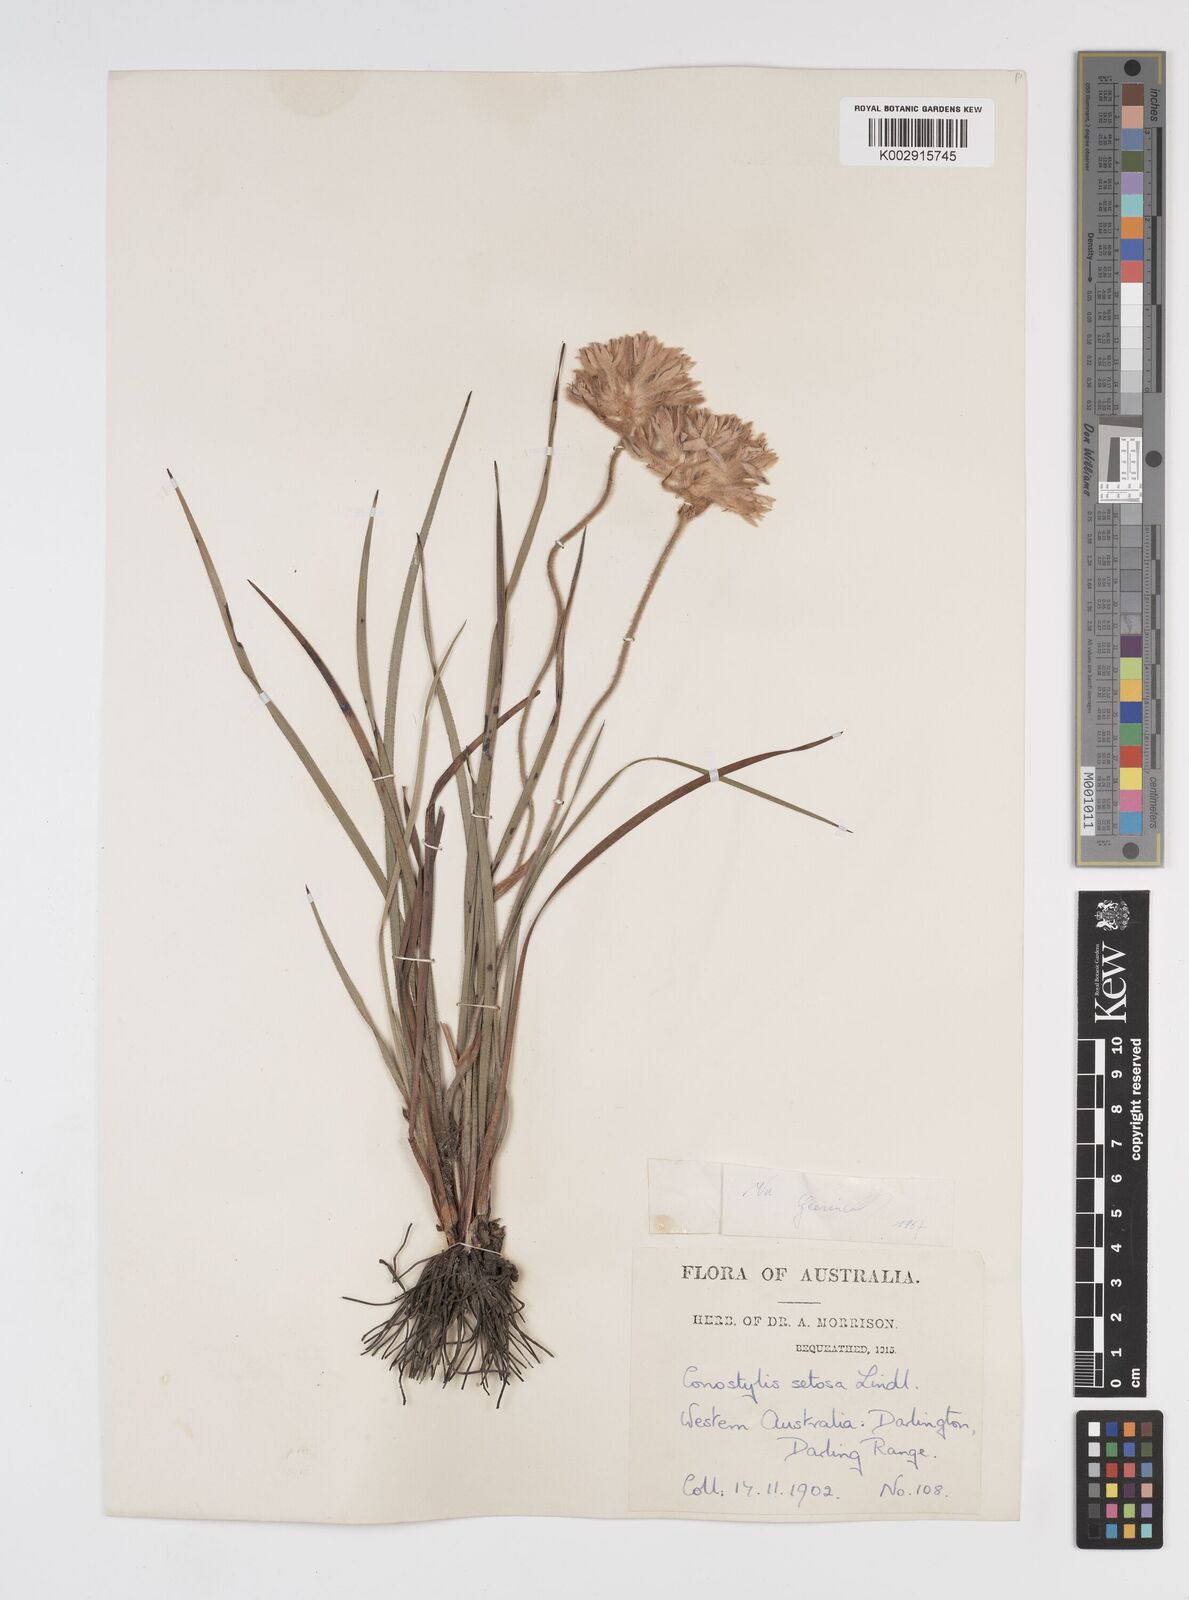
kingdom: Plantae
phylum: Tracheophyta
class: Liliopsida
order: Commelinales
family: Haemodoraceae
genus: Conostylis
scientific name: Conostylis setosa
